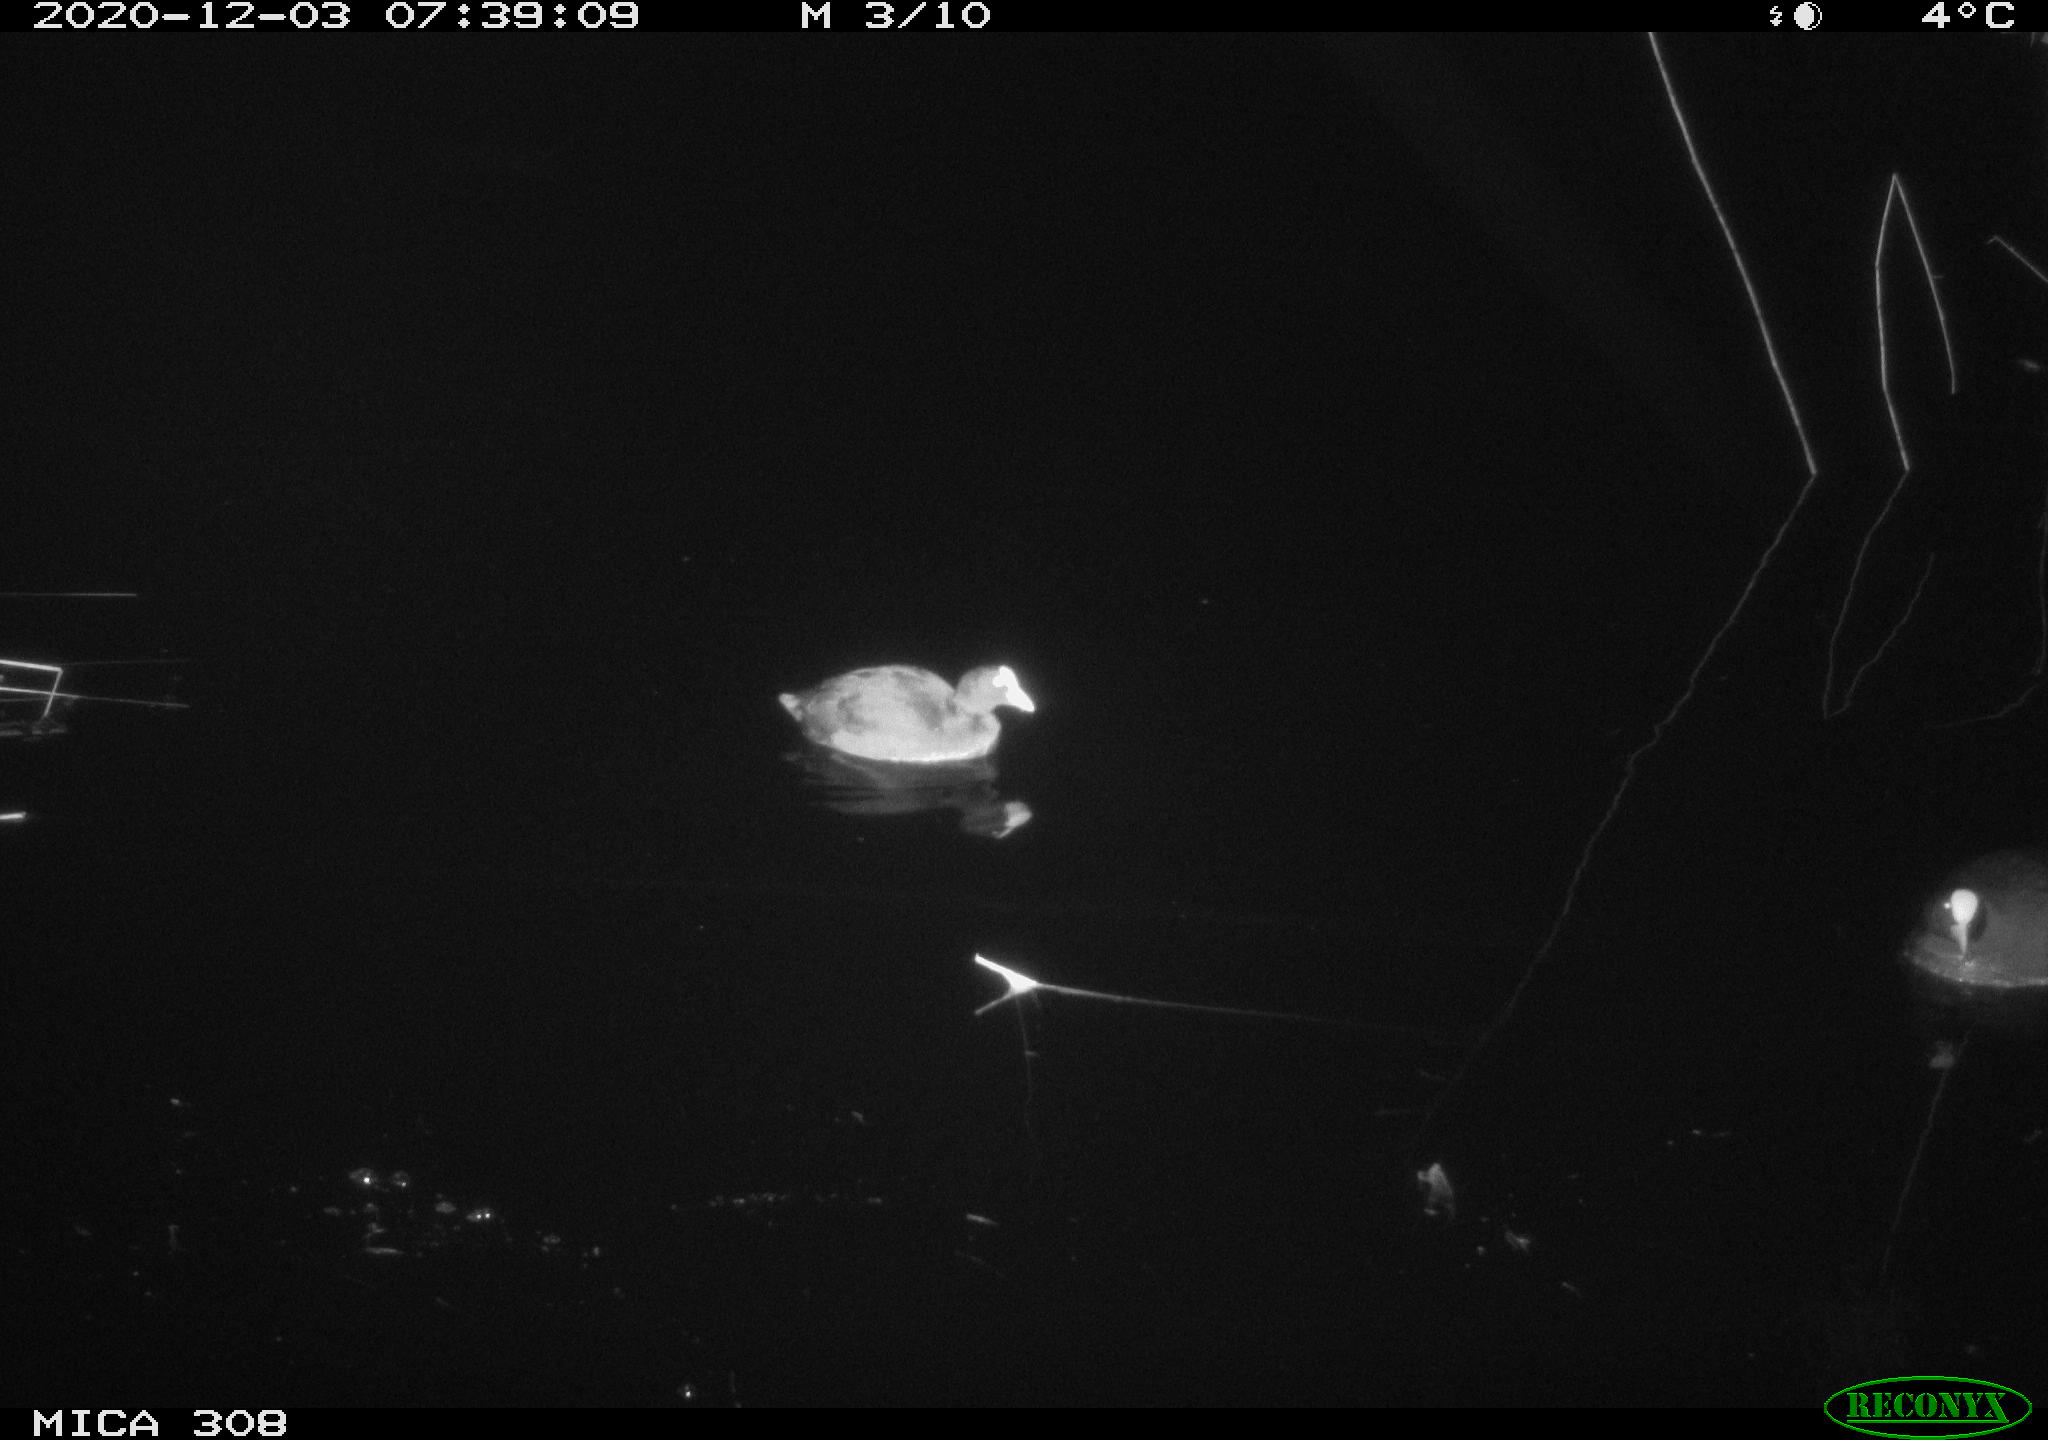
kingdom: Animalia
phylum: Chordata
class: Aves
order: Gruiformes
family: Rallidae
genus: Fulica
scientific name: Fulica atra
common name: Eurasian coot
